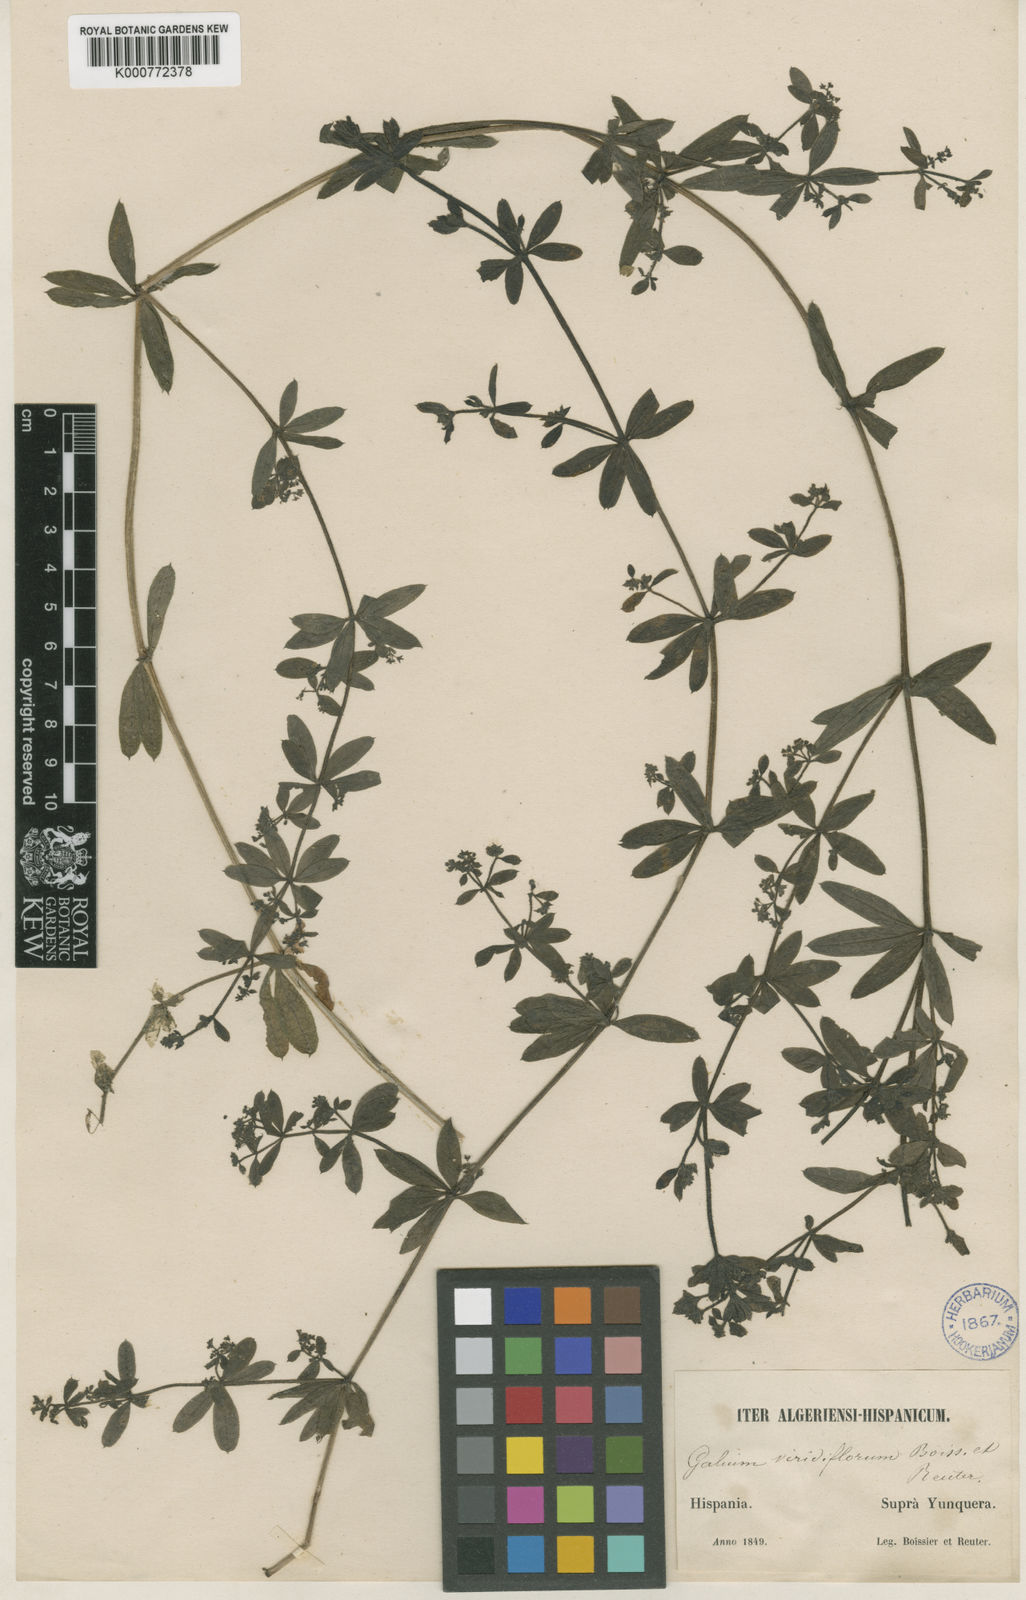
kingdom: Plantae
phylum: Tracheophyta
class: Magnoliopsida
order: Gentianales
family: Rubiaceae
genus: Galium
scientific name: Galium viridiflorum
